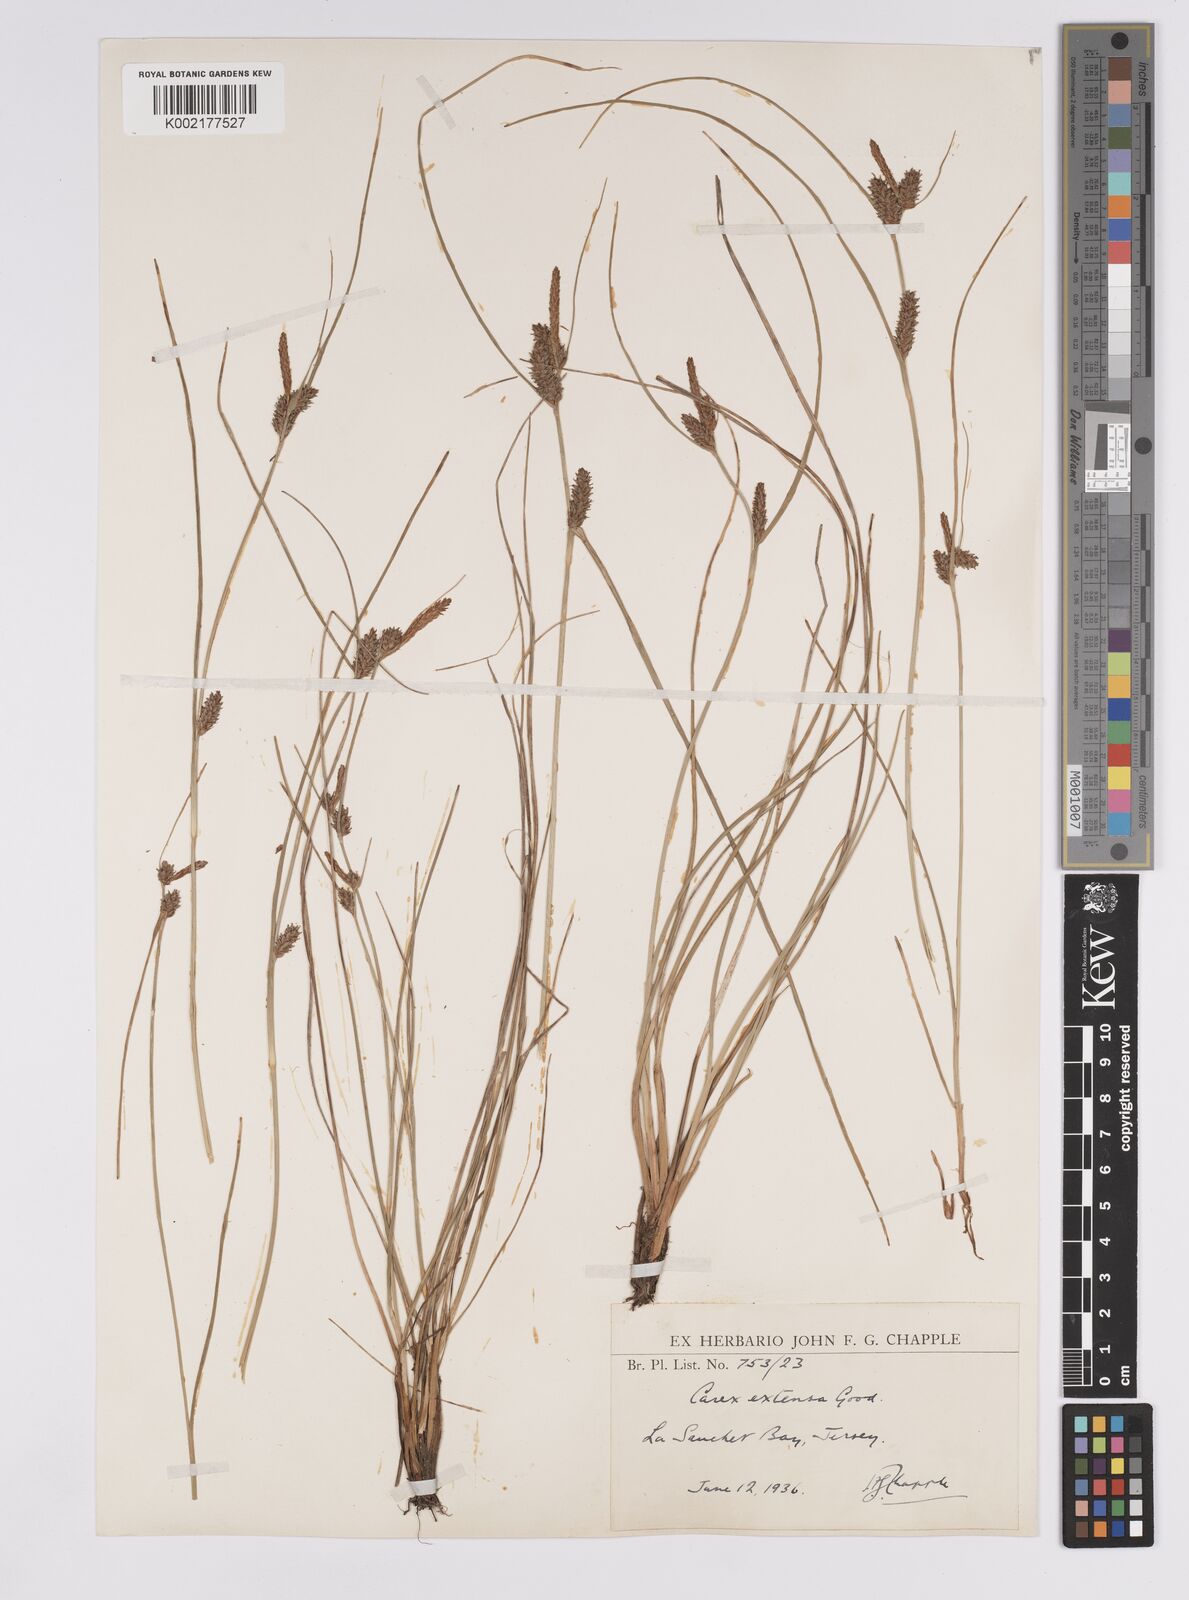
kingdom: Plantae
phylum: Tracheophyta
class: Liliopsida
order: Poales
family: Cyperaceae
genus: Carex
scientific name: Carex extensa
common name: Long-bracted sedge
